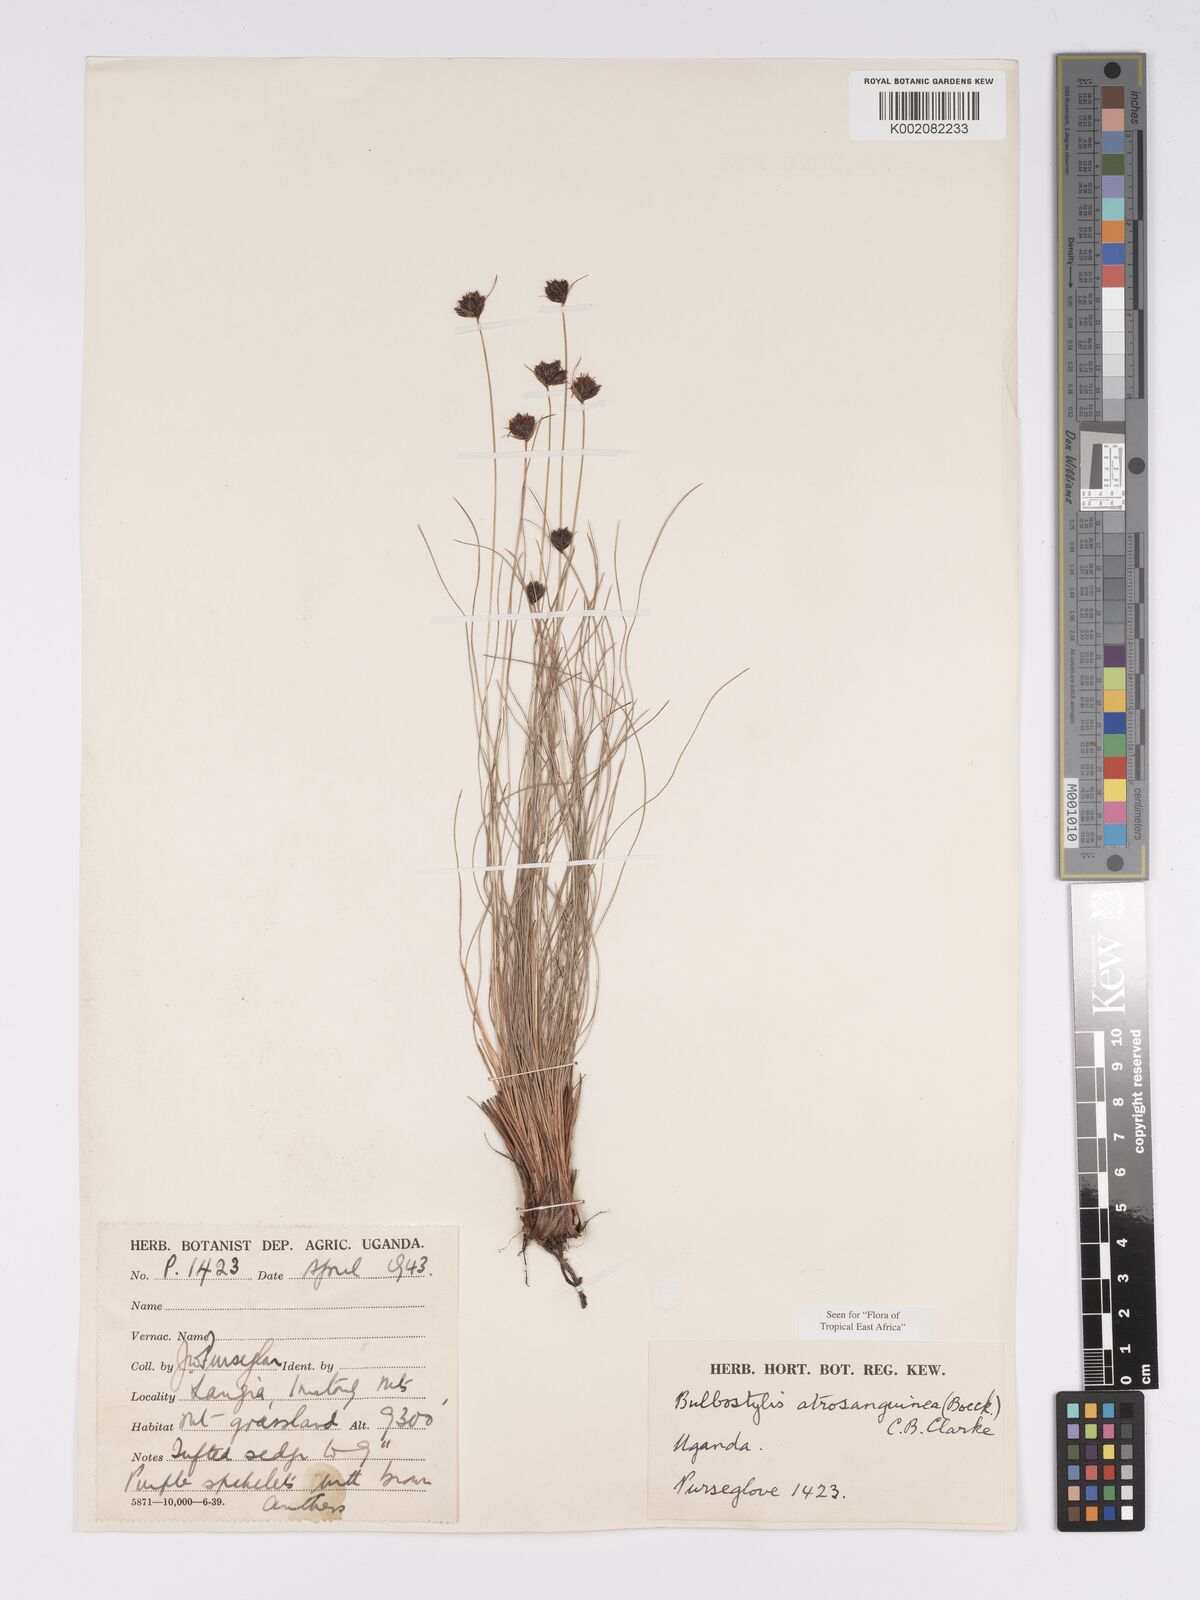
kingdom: Plantae
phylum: Tracheophyta
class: Liliopsida
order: Poales
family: Cyperaceae
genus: Bulbostylis
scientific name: Bulbostylis atrosanguinea
